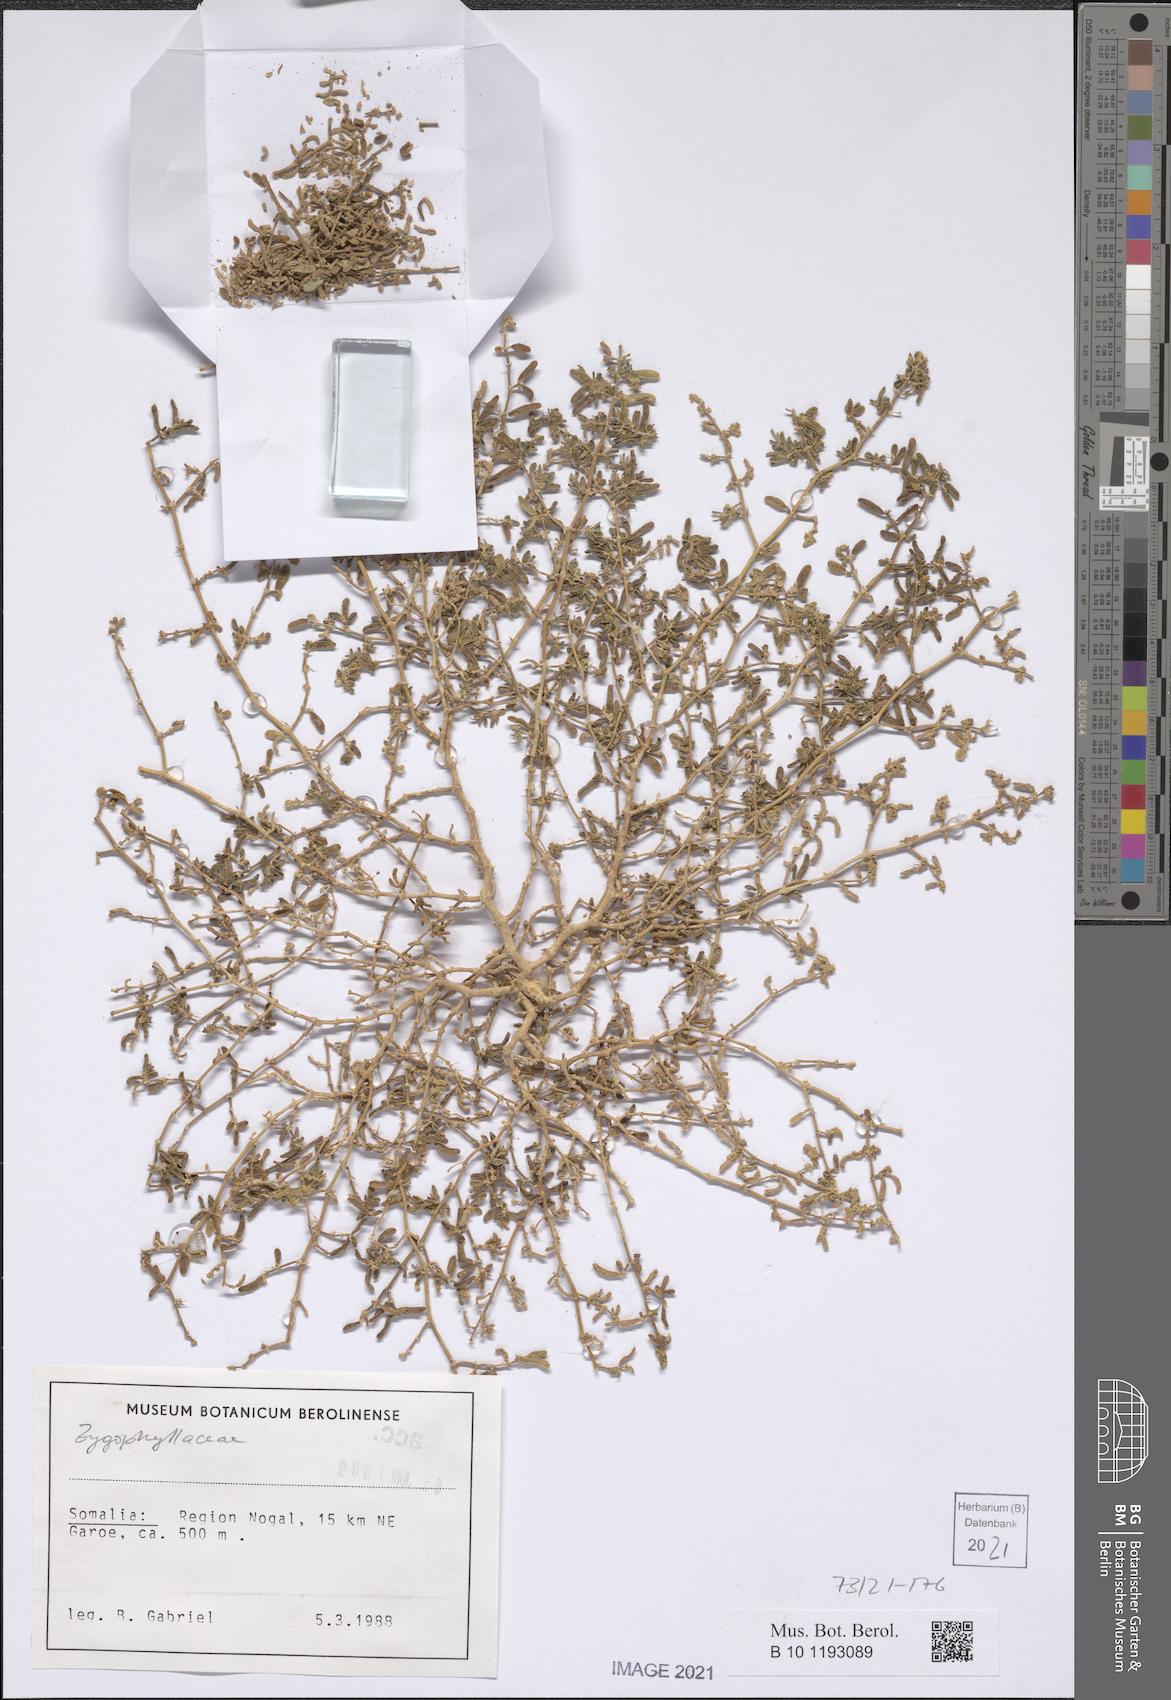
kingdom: Plantae
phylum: Tracheophyta
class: Magnoliopsida
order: Zygophyllales
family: Zygophyllaceae
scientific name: Zygophyllaceae
